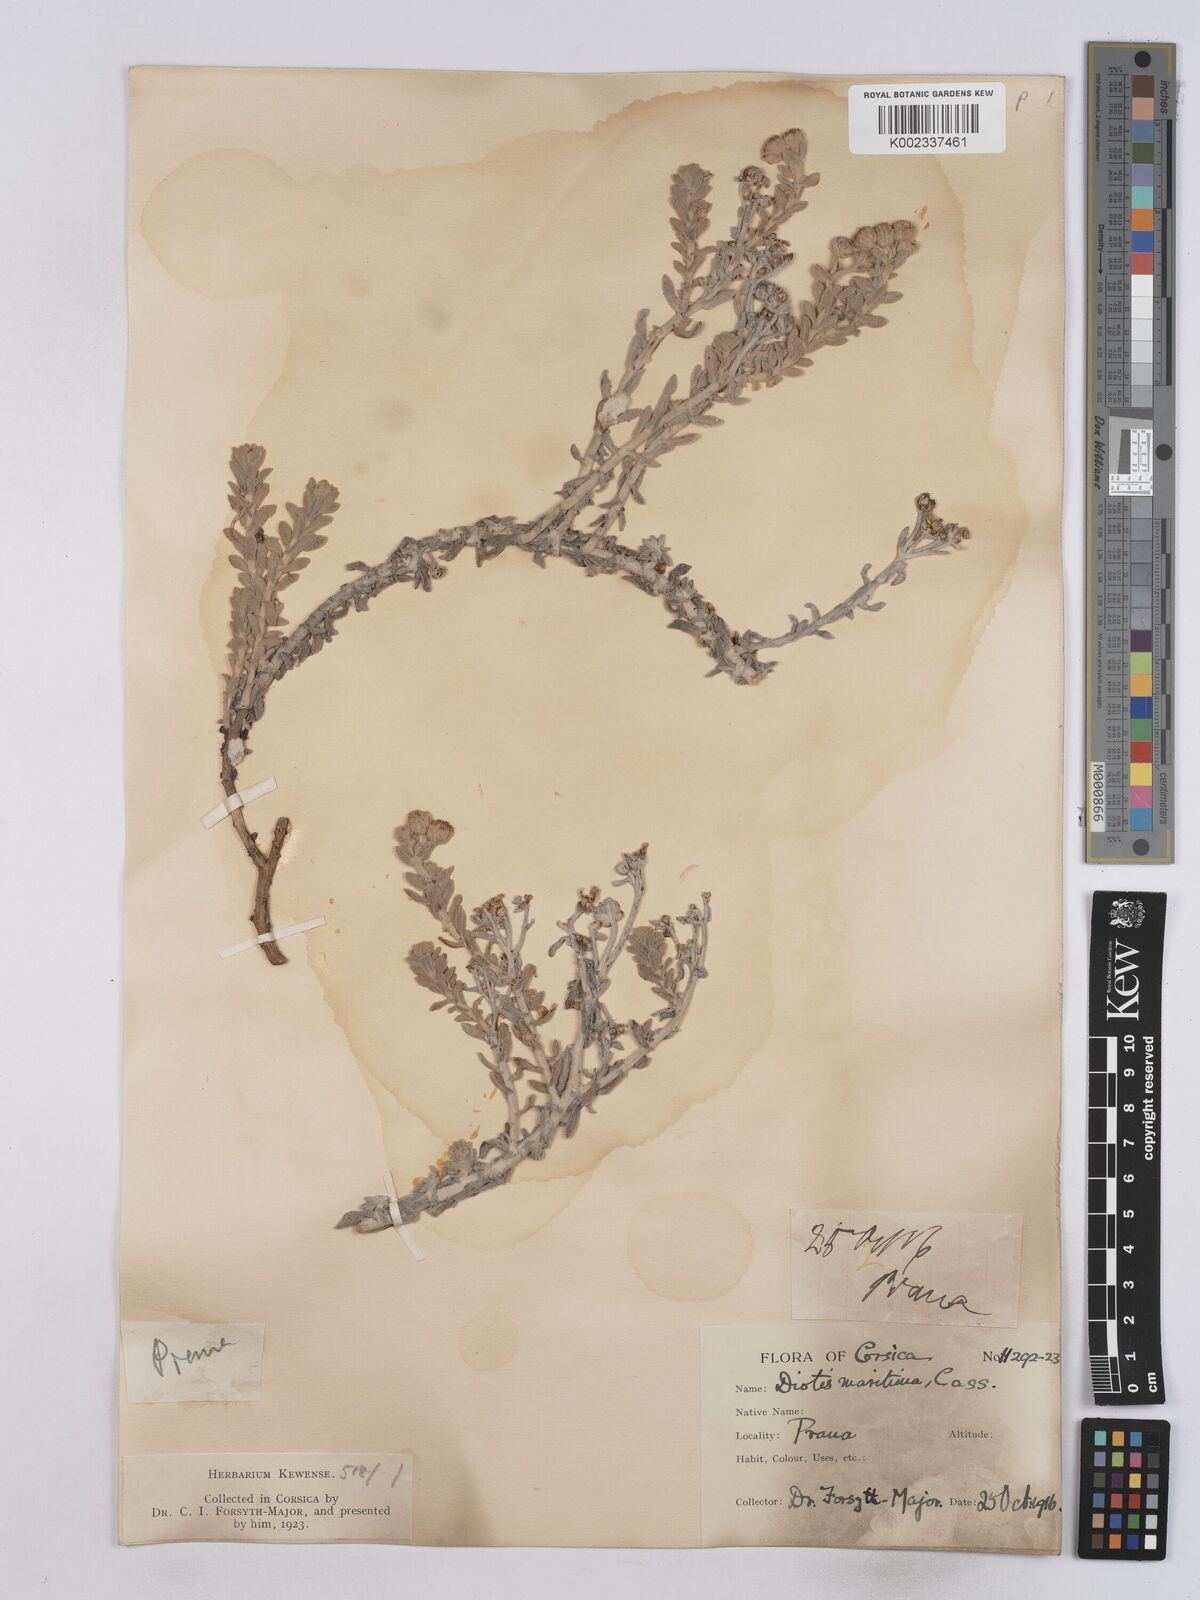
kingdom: Plantae
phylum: Tracheophyta
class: Magnoliopsida
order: Asterales
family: Asteraceae
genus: Achillea
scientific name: Achillea maritima
